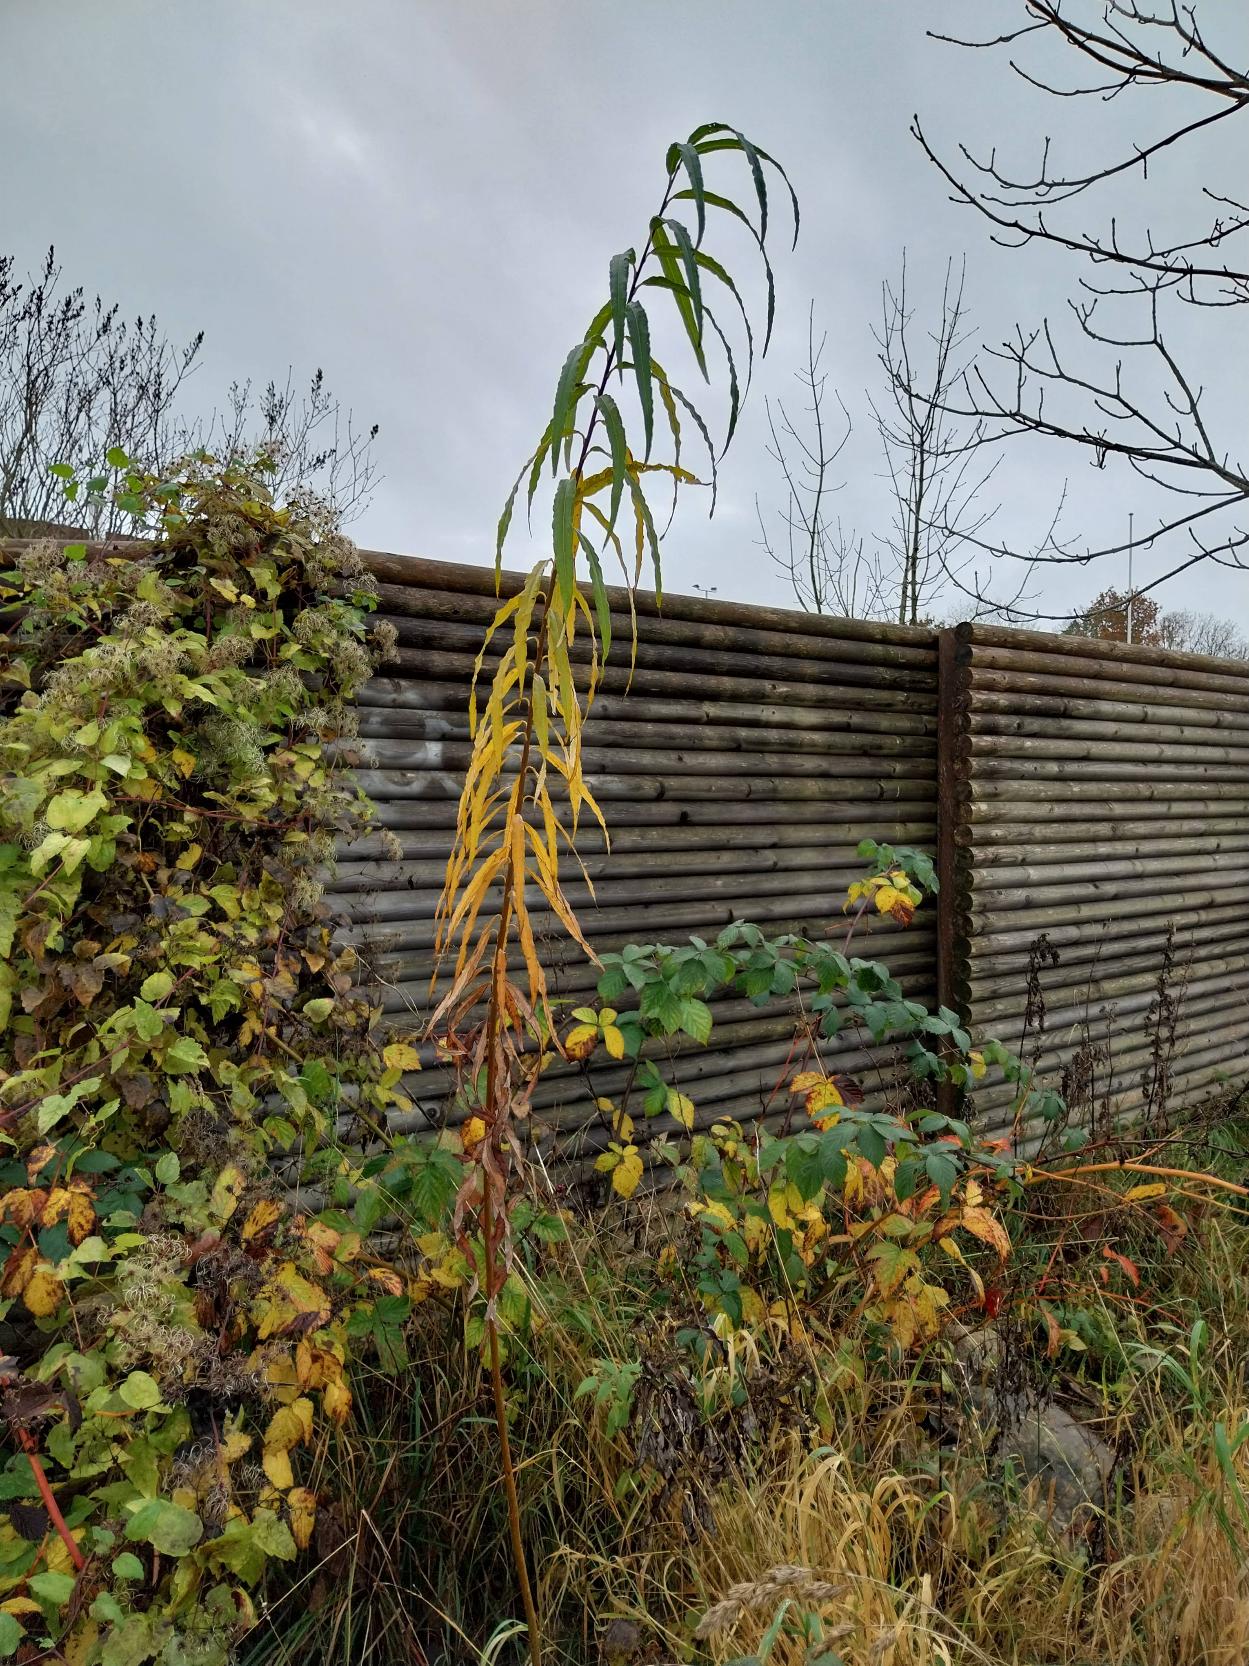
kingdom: Plantae
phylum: Tracheophyta
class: Magnoliopsida
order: Malpighiales
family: Salicaceae
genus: Salix
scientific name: Salix viminalis
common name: Bånd-pil
